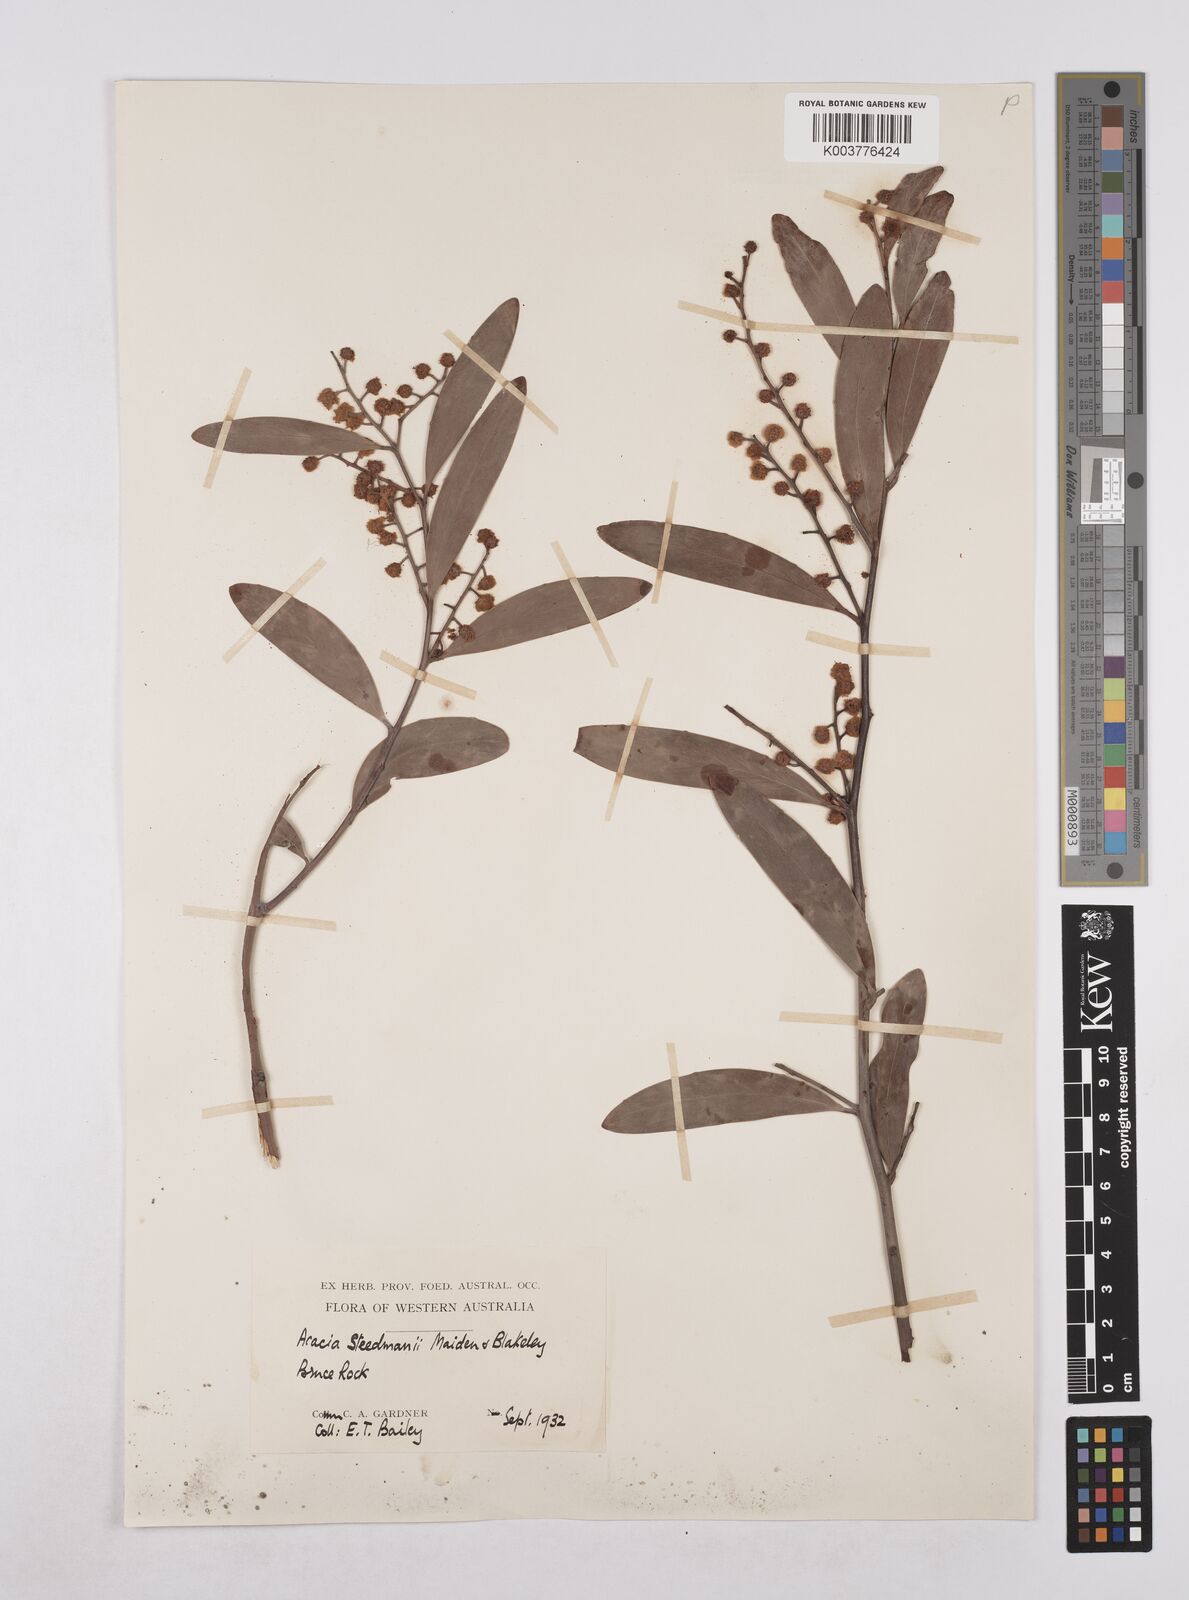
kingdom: Plantae
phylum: Tracheophyta
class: Magnoliopsida
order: Fabales
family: Fabaceae
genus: Acacia
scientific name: Acacia steedmanii
